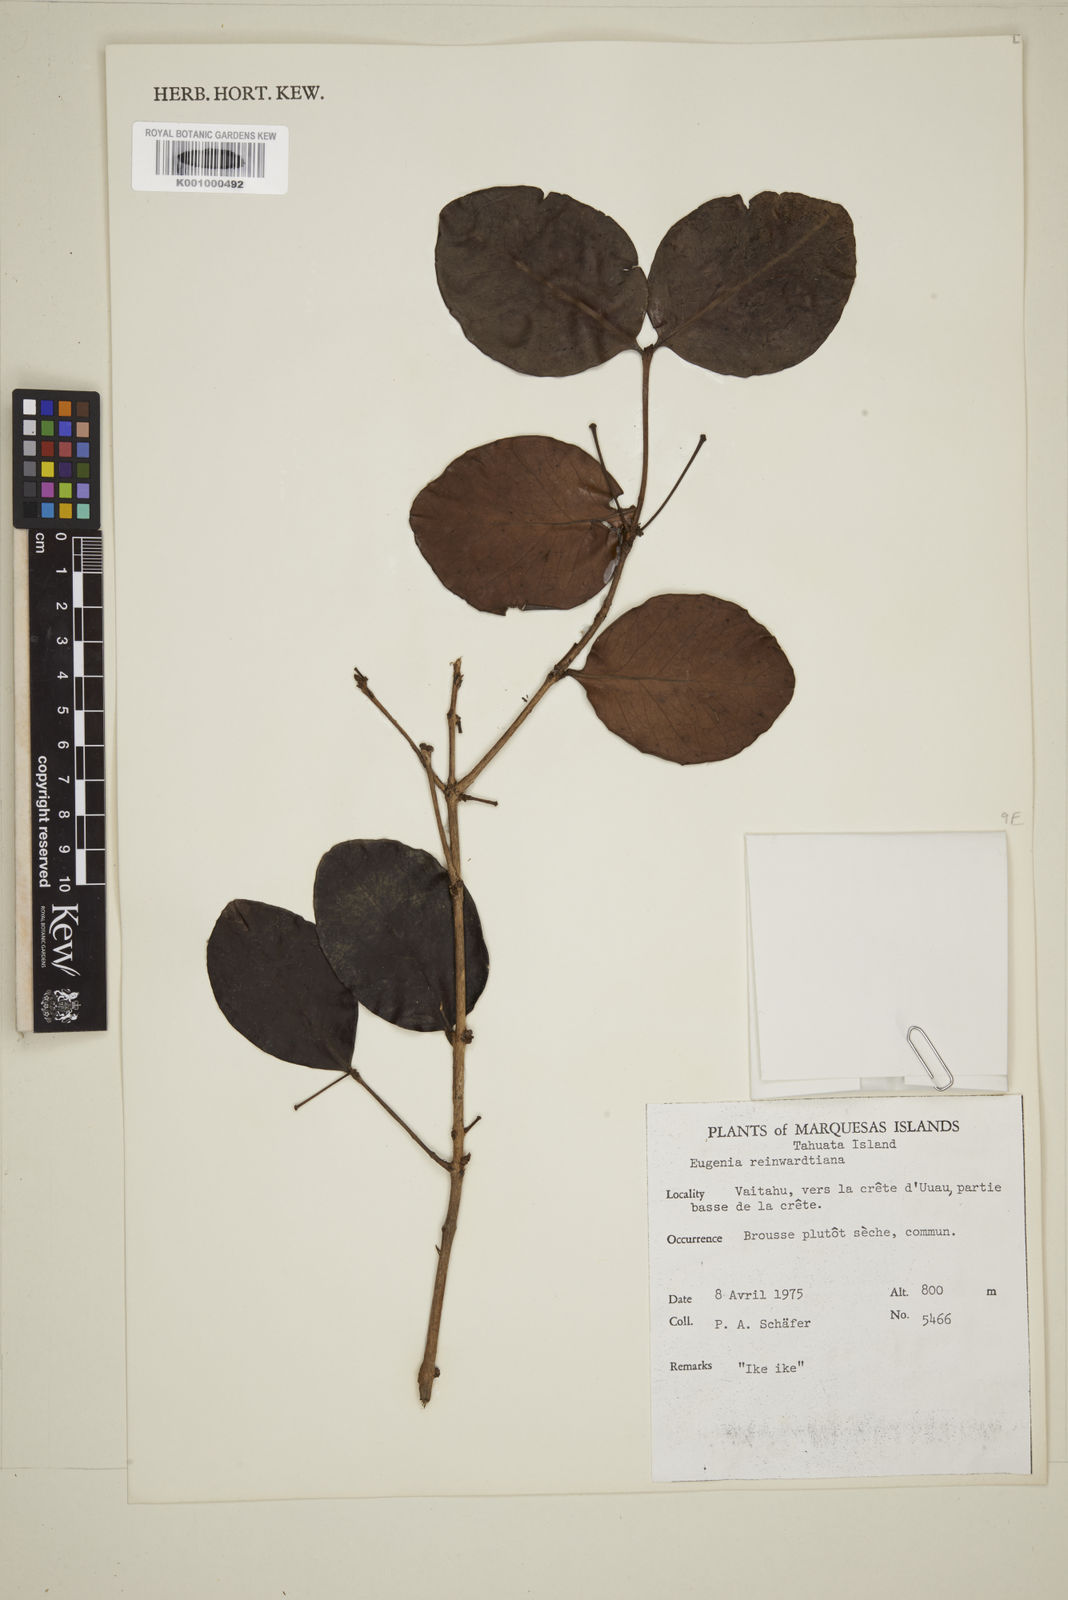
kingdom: Plantae
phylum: Tracheophyta
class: Magnoliopsida
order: Myrtales
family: Myrtaceae
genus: Eugenia
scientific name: Eugenia reinwardtiana
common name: Cedar bay-cherry
